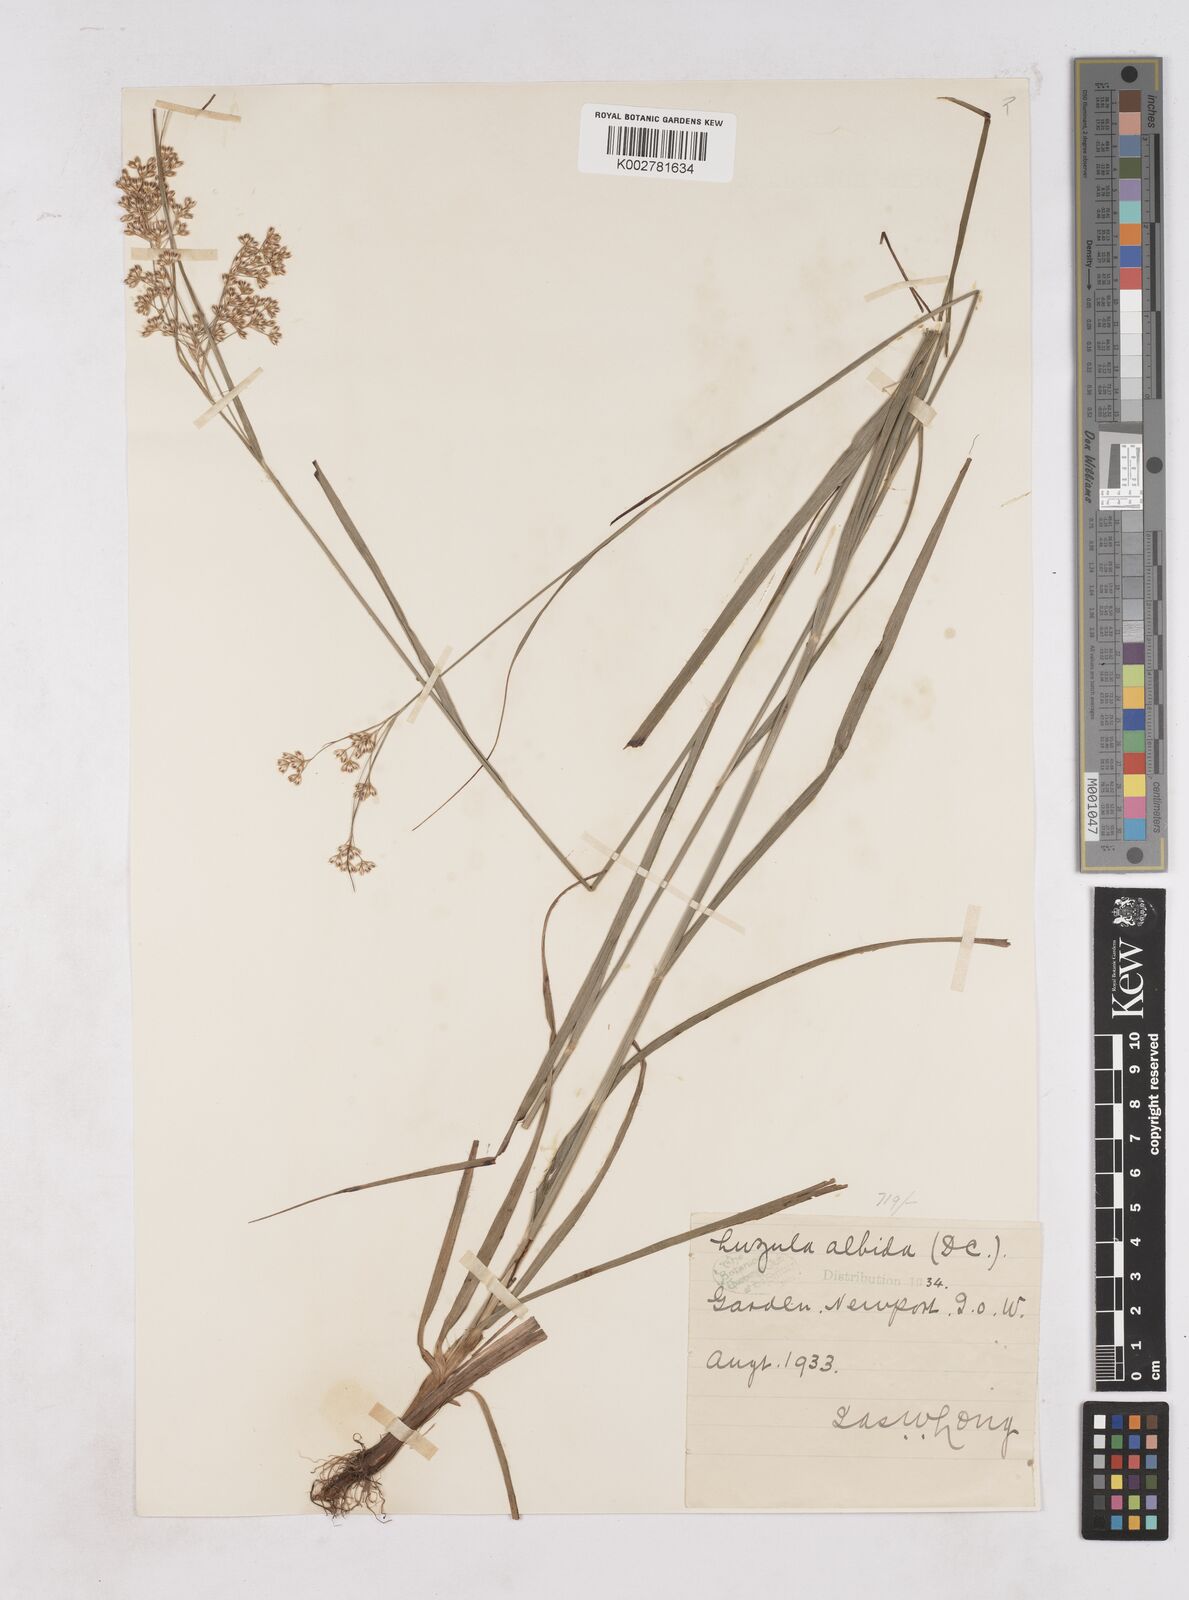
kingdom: Plantae
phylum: Tracheophyta
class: Liliopsida
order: Poales
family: Juncaceae
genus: Luzula
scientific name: Luzula luzuloides
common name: White wood-rush
